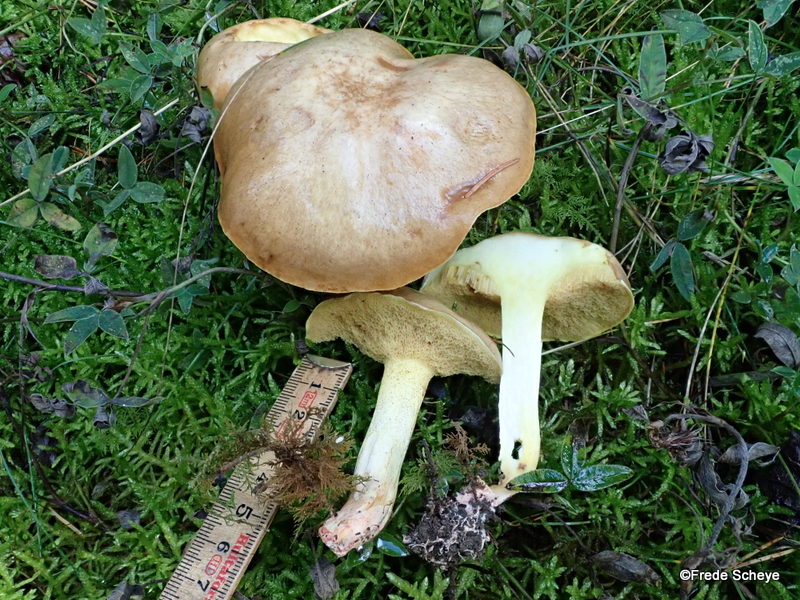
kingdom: Fungi
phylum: Basidiomycota
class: Agaricomycetes
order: Boletales
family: Suillaceae
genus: Suillus
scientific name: Suillus granulatus
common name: kornet slimrørhat
